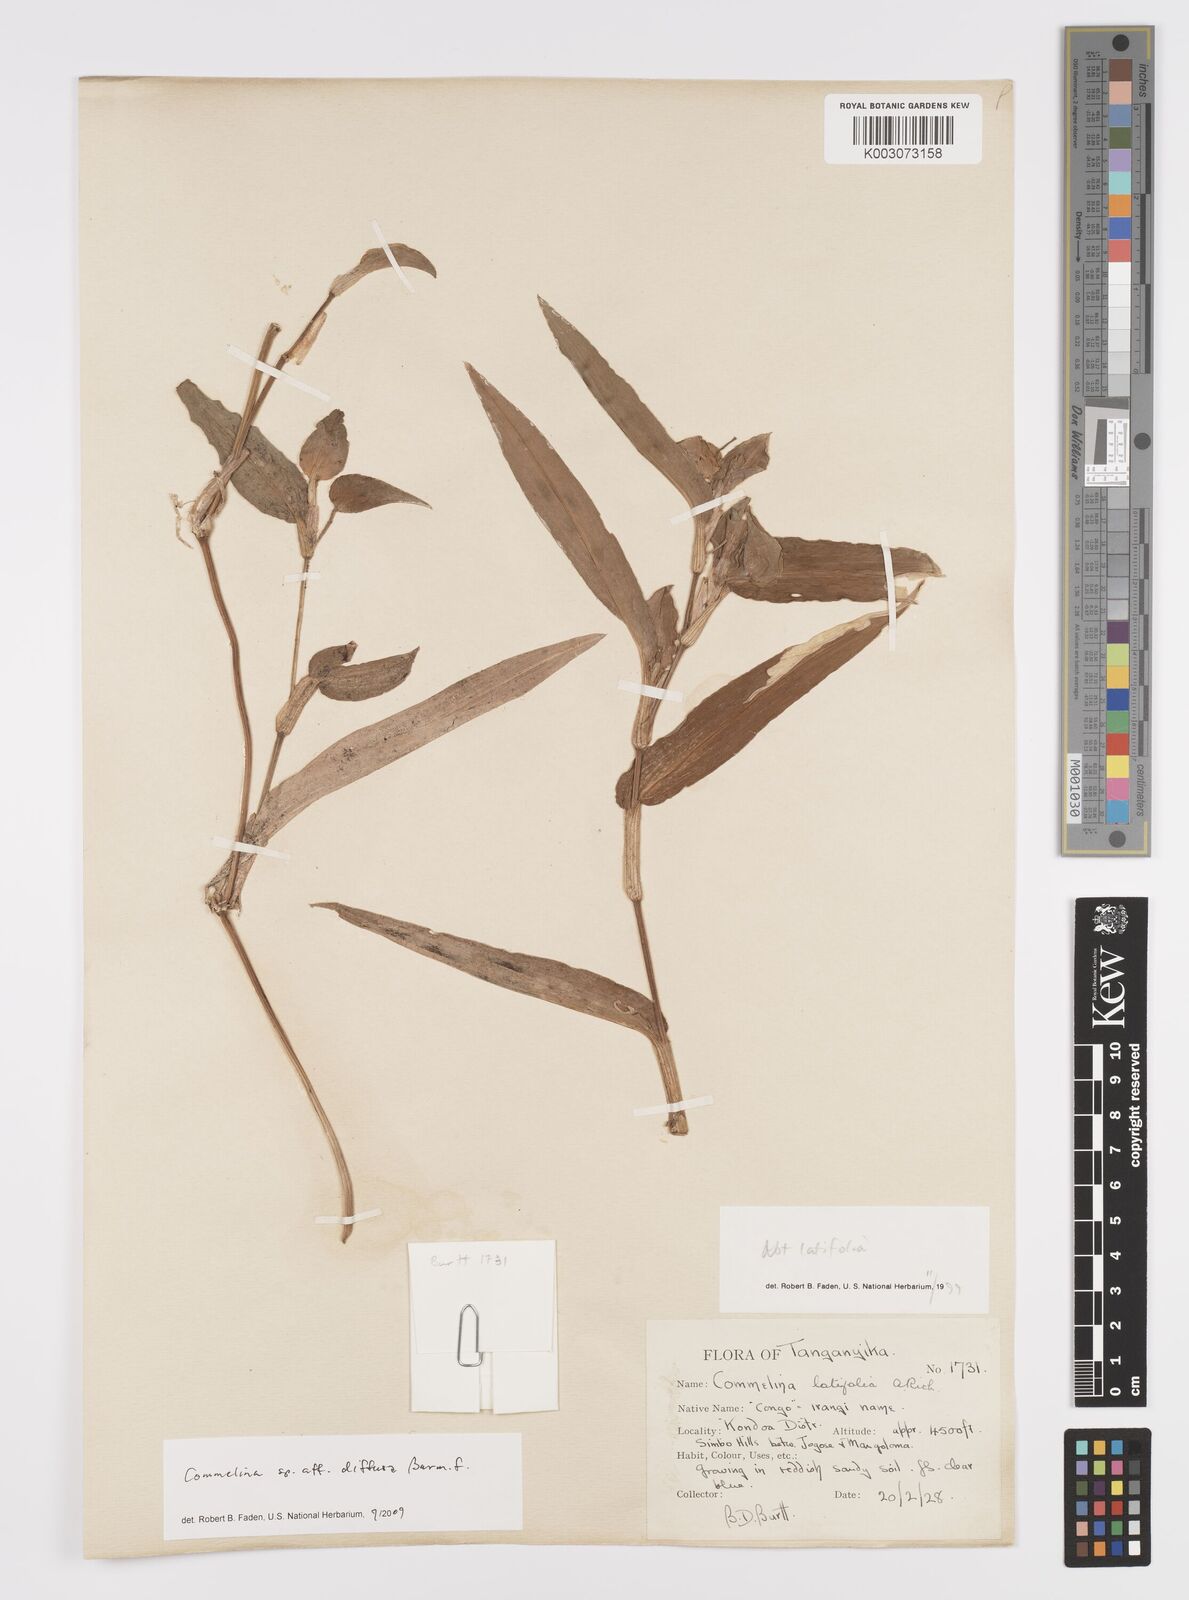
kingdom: Plantae
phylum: Tracheophyta
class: Liliopsida
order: Commelinales
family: Commelinaceae
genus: Commelina
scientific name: Commelina diffusa
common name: Climbing dayflower
